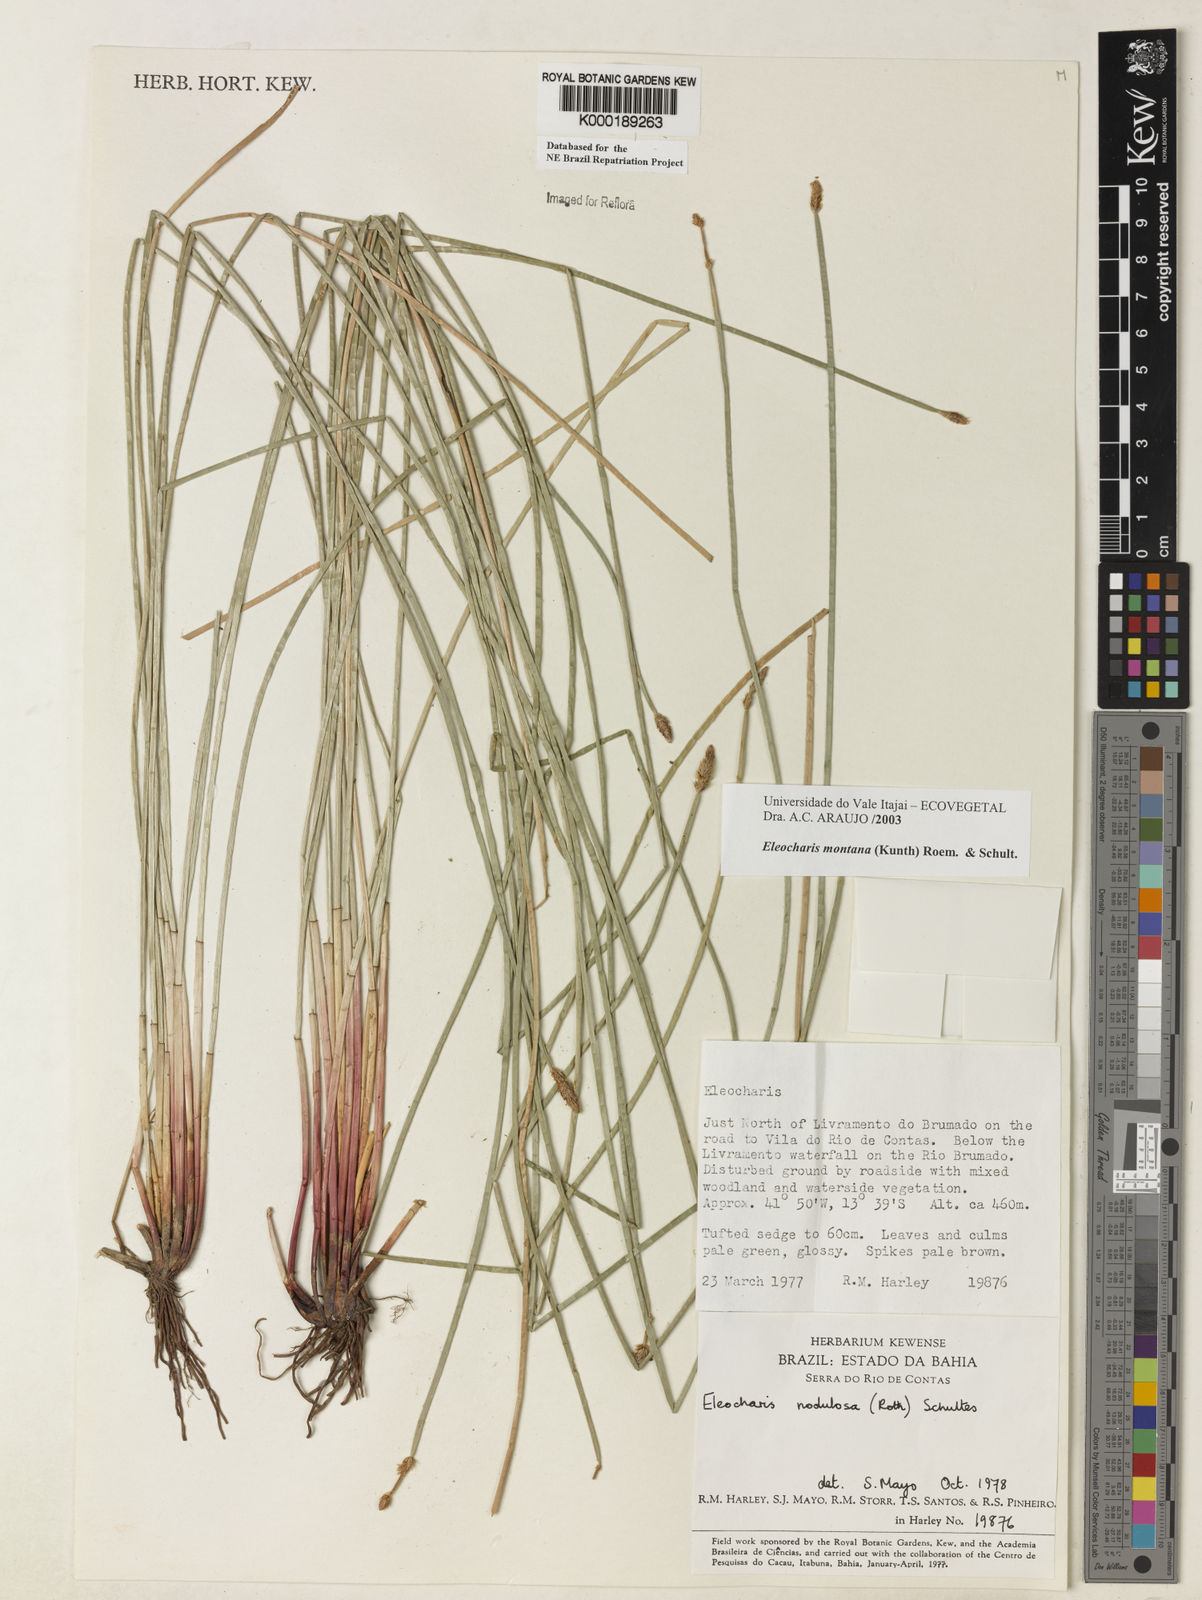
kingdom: Plantae
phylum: Tracheophyta
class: Liliopsida
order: Poales
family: Cyperaceae
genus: Eleocharis
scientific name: Eleocharis montana
